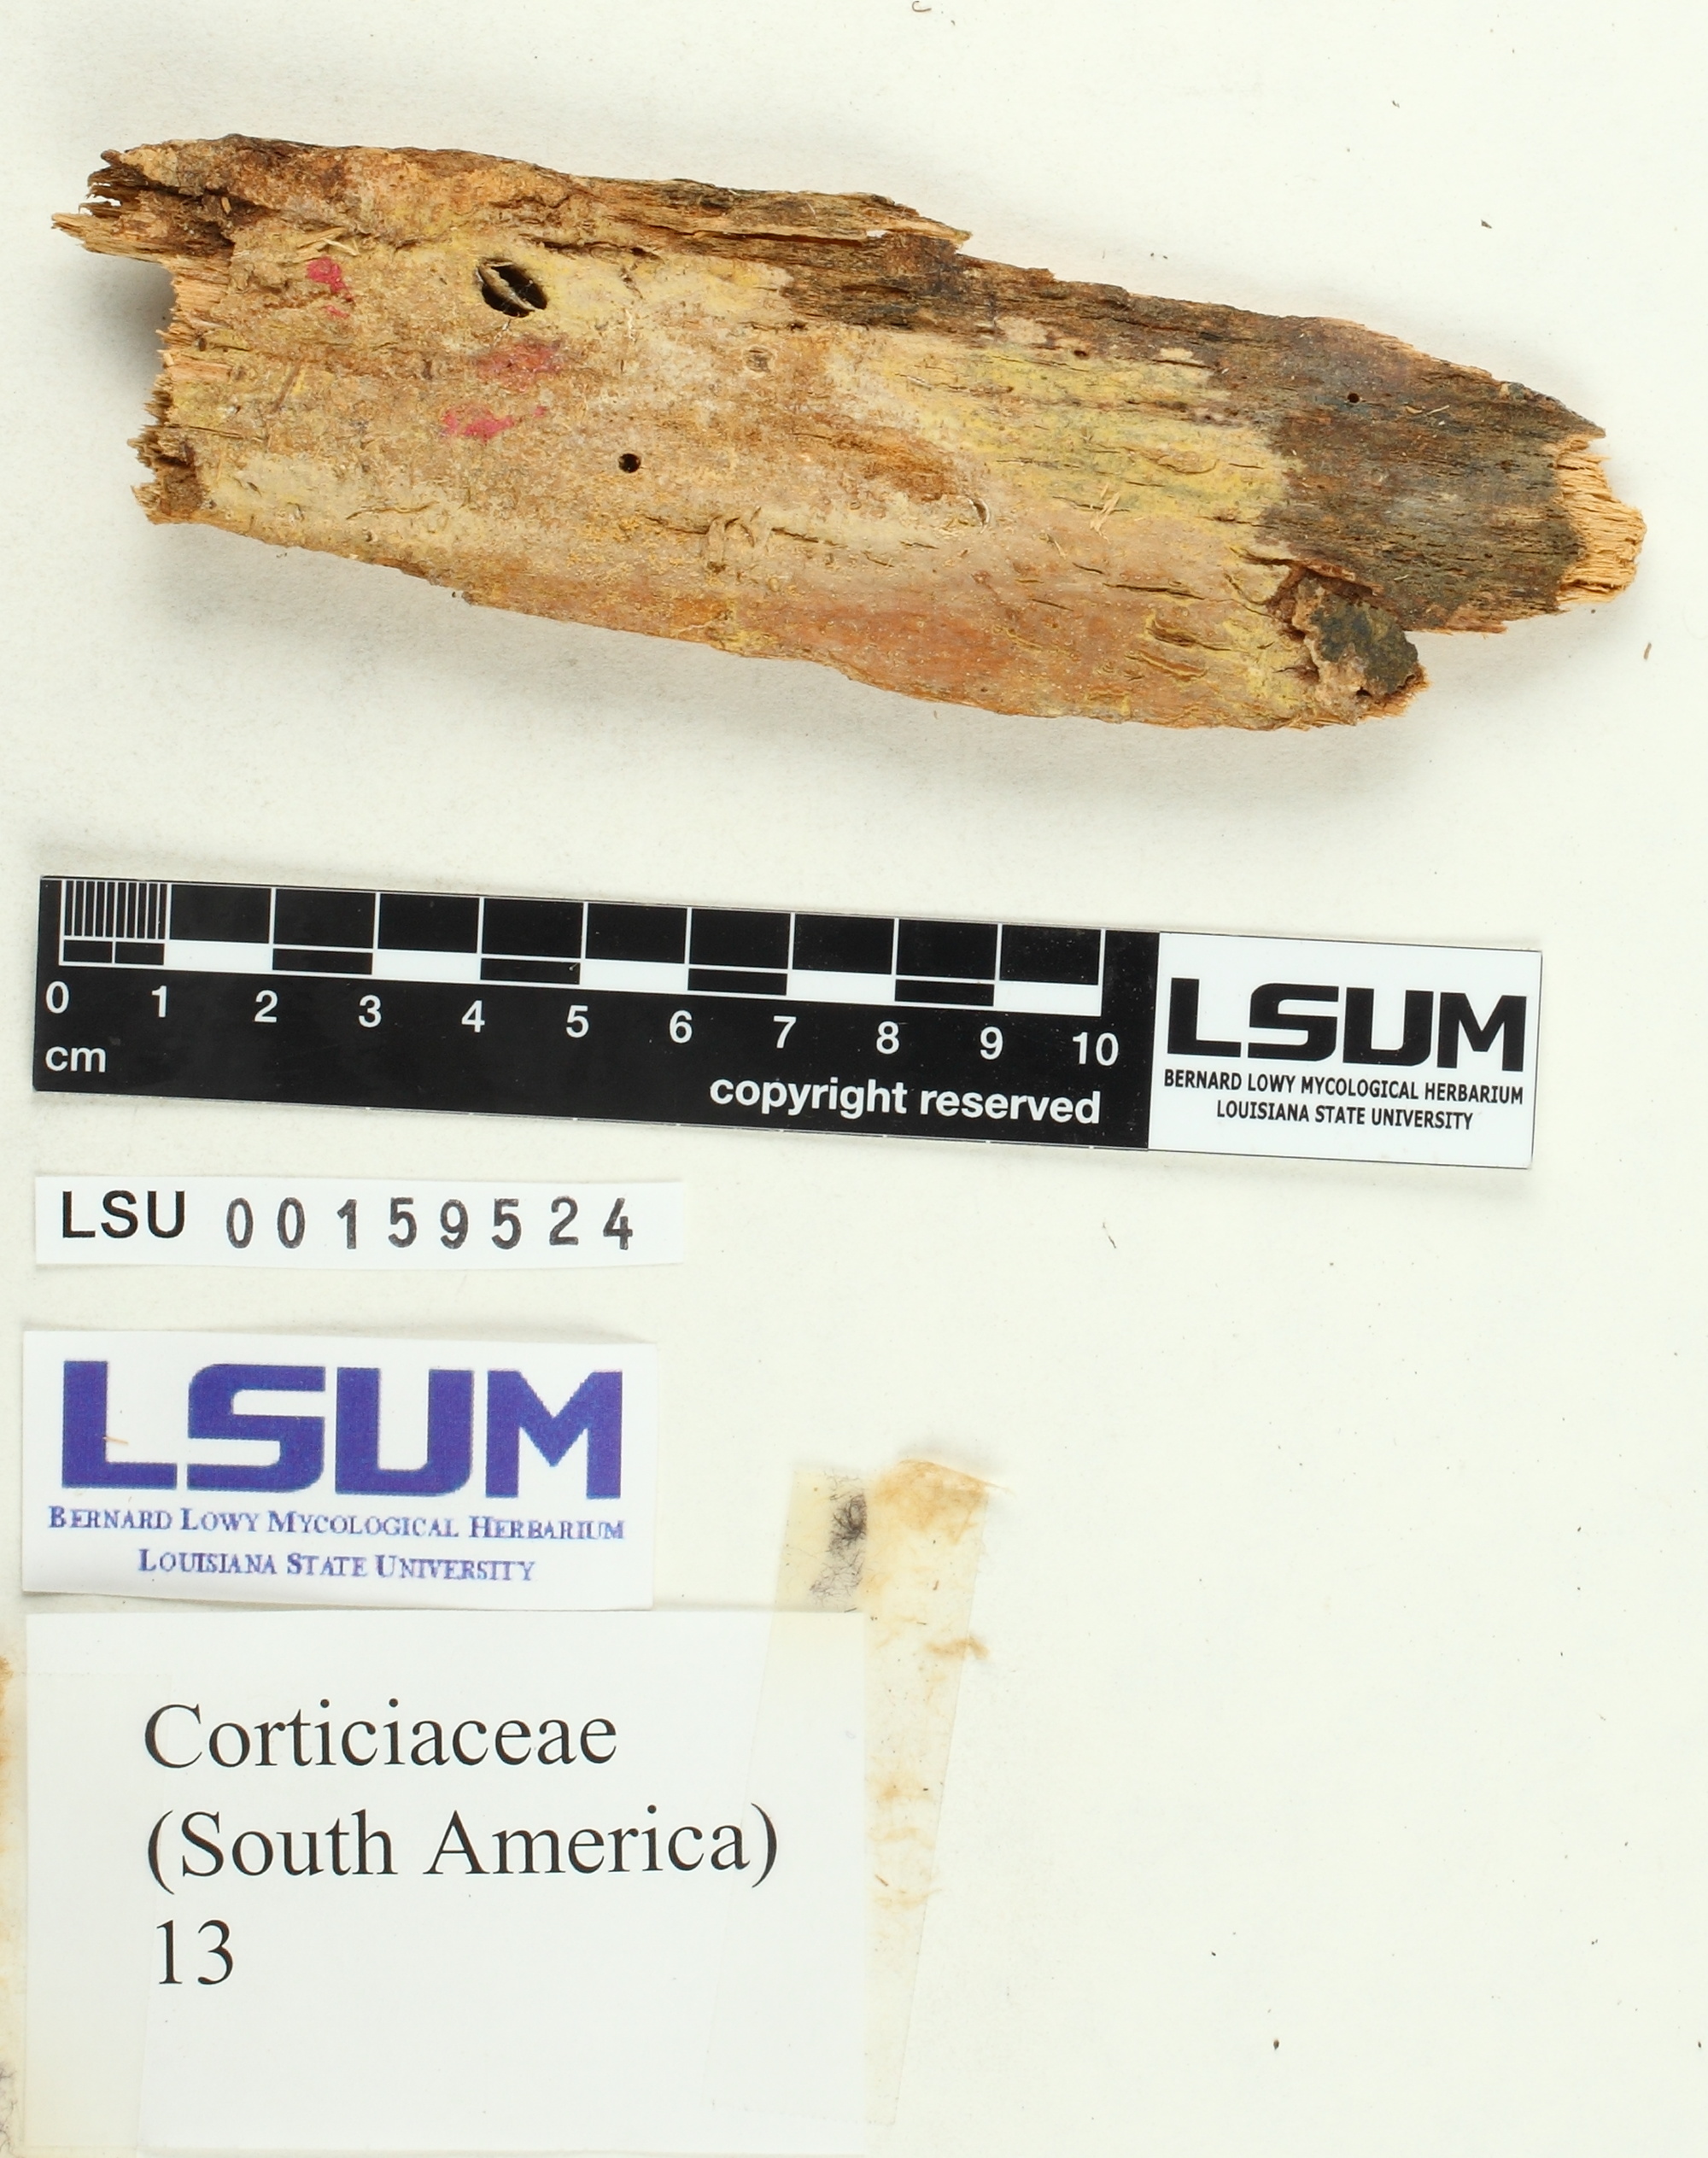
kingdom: Fungi
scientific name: Fungi
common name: Fungi
